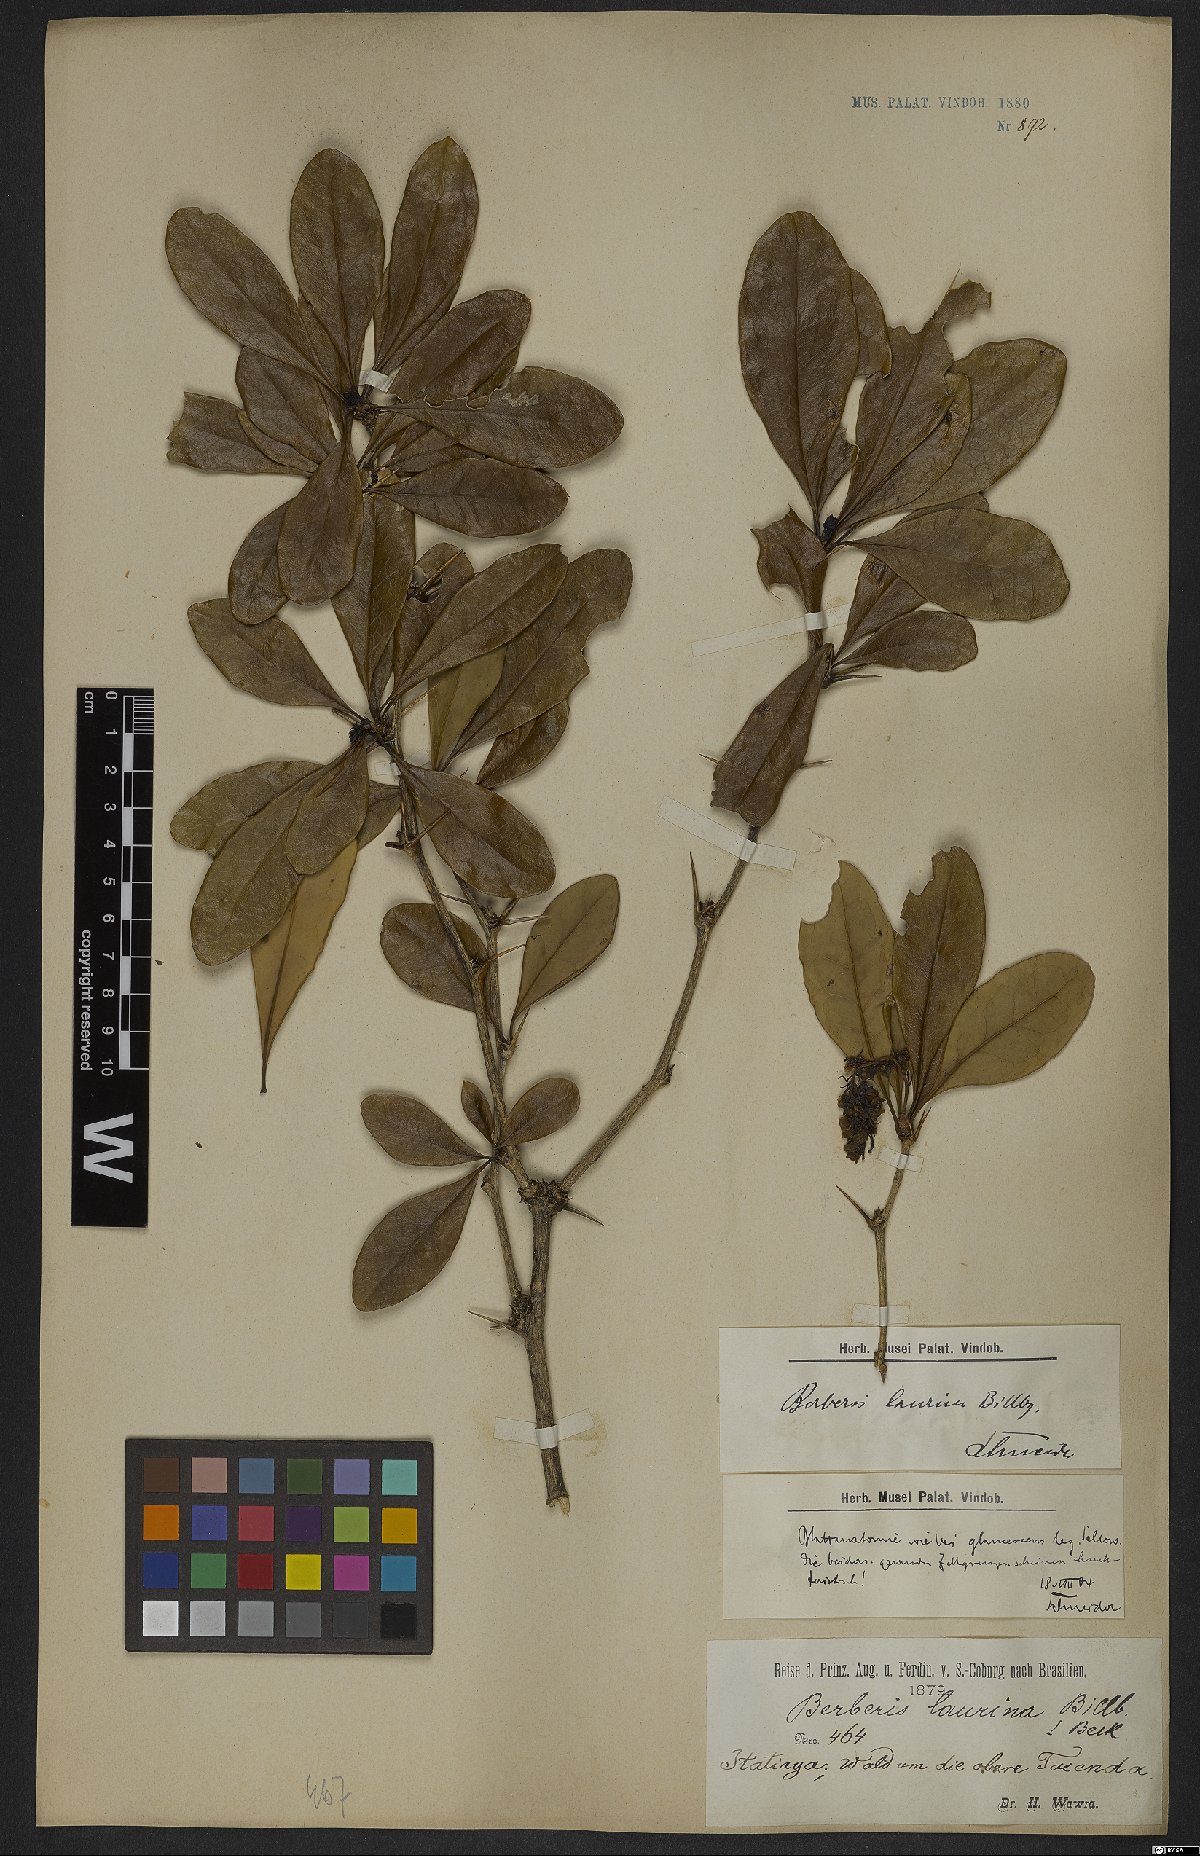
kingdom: Plantae
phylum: Tracheophyta
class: Magnoliopsida
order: Ranunculales
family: Berberidaceae
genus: Berberis
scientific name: Berberis laurina
